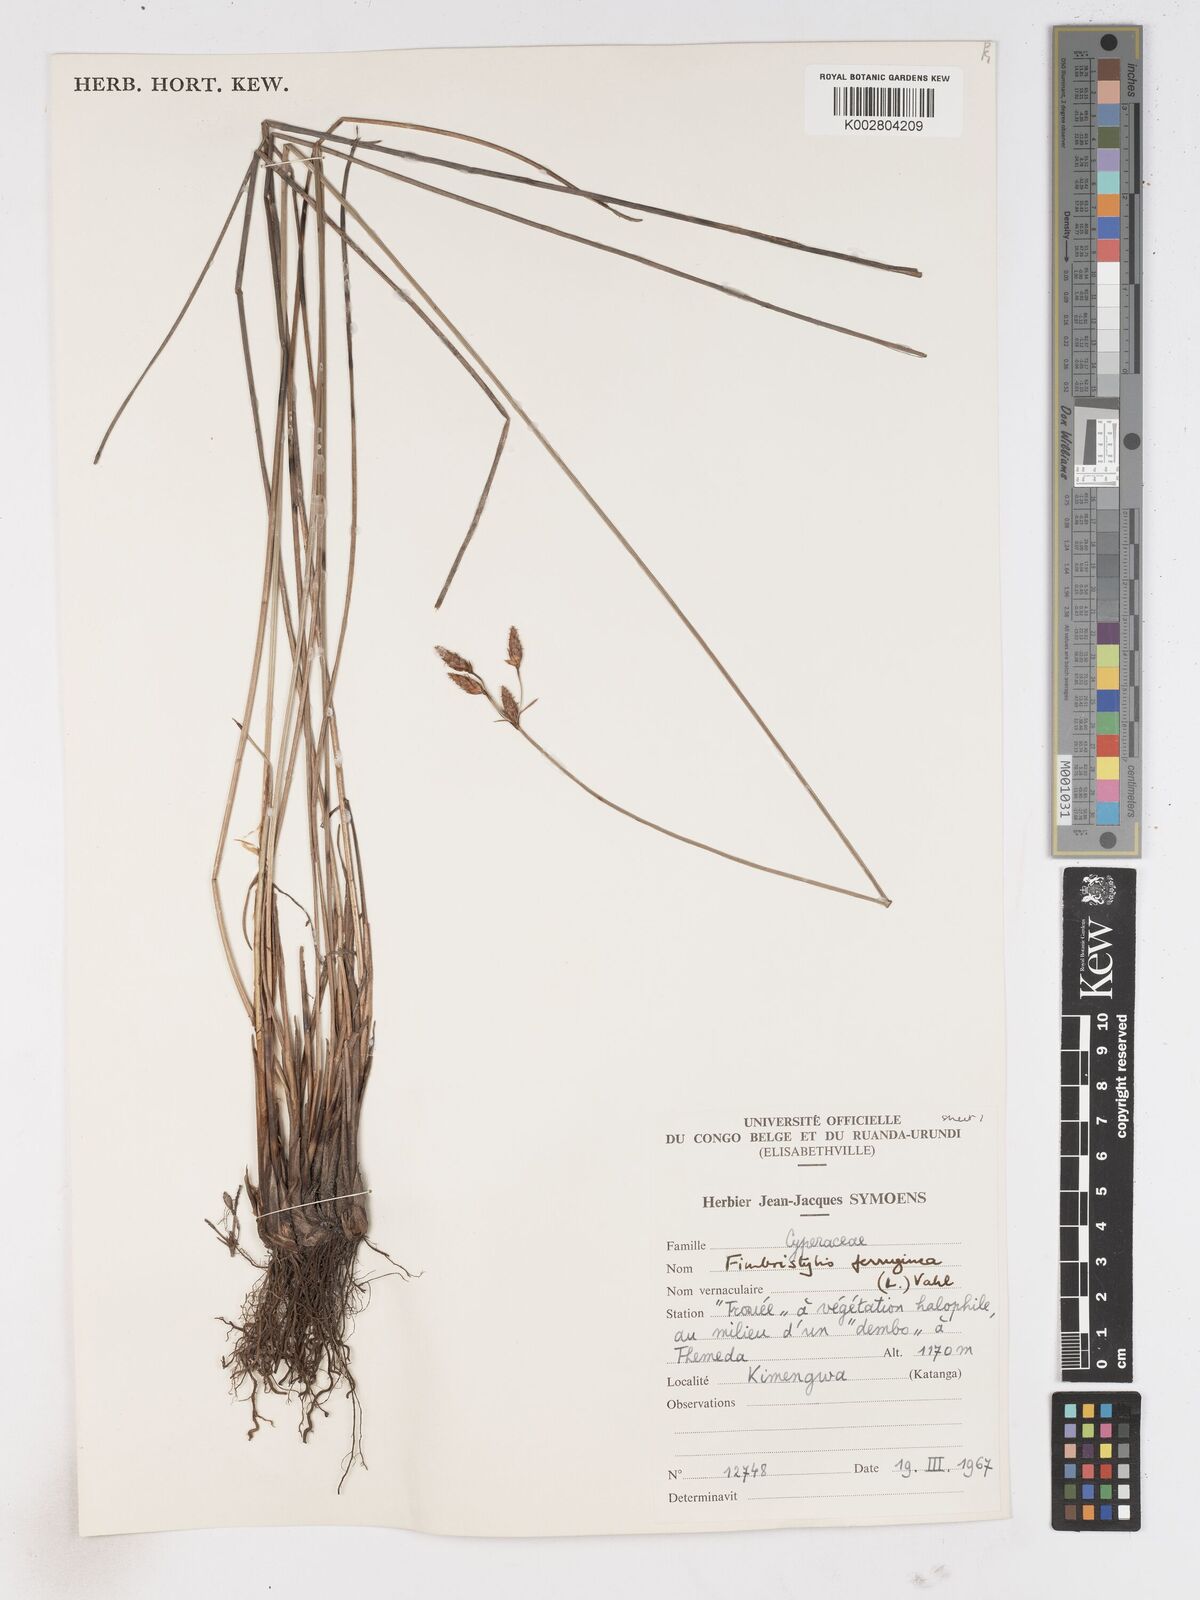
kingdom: Plantae
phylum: Tracheophyta
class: Liliopsida
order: Poales
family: Cyperaceae
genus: Fimbristylis
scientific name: Fimbristylis ferruginea
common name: West indian fimbry
